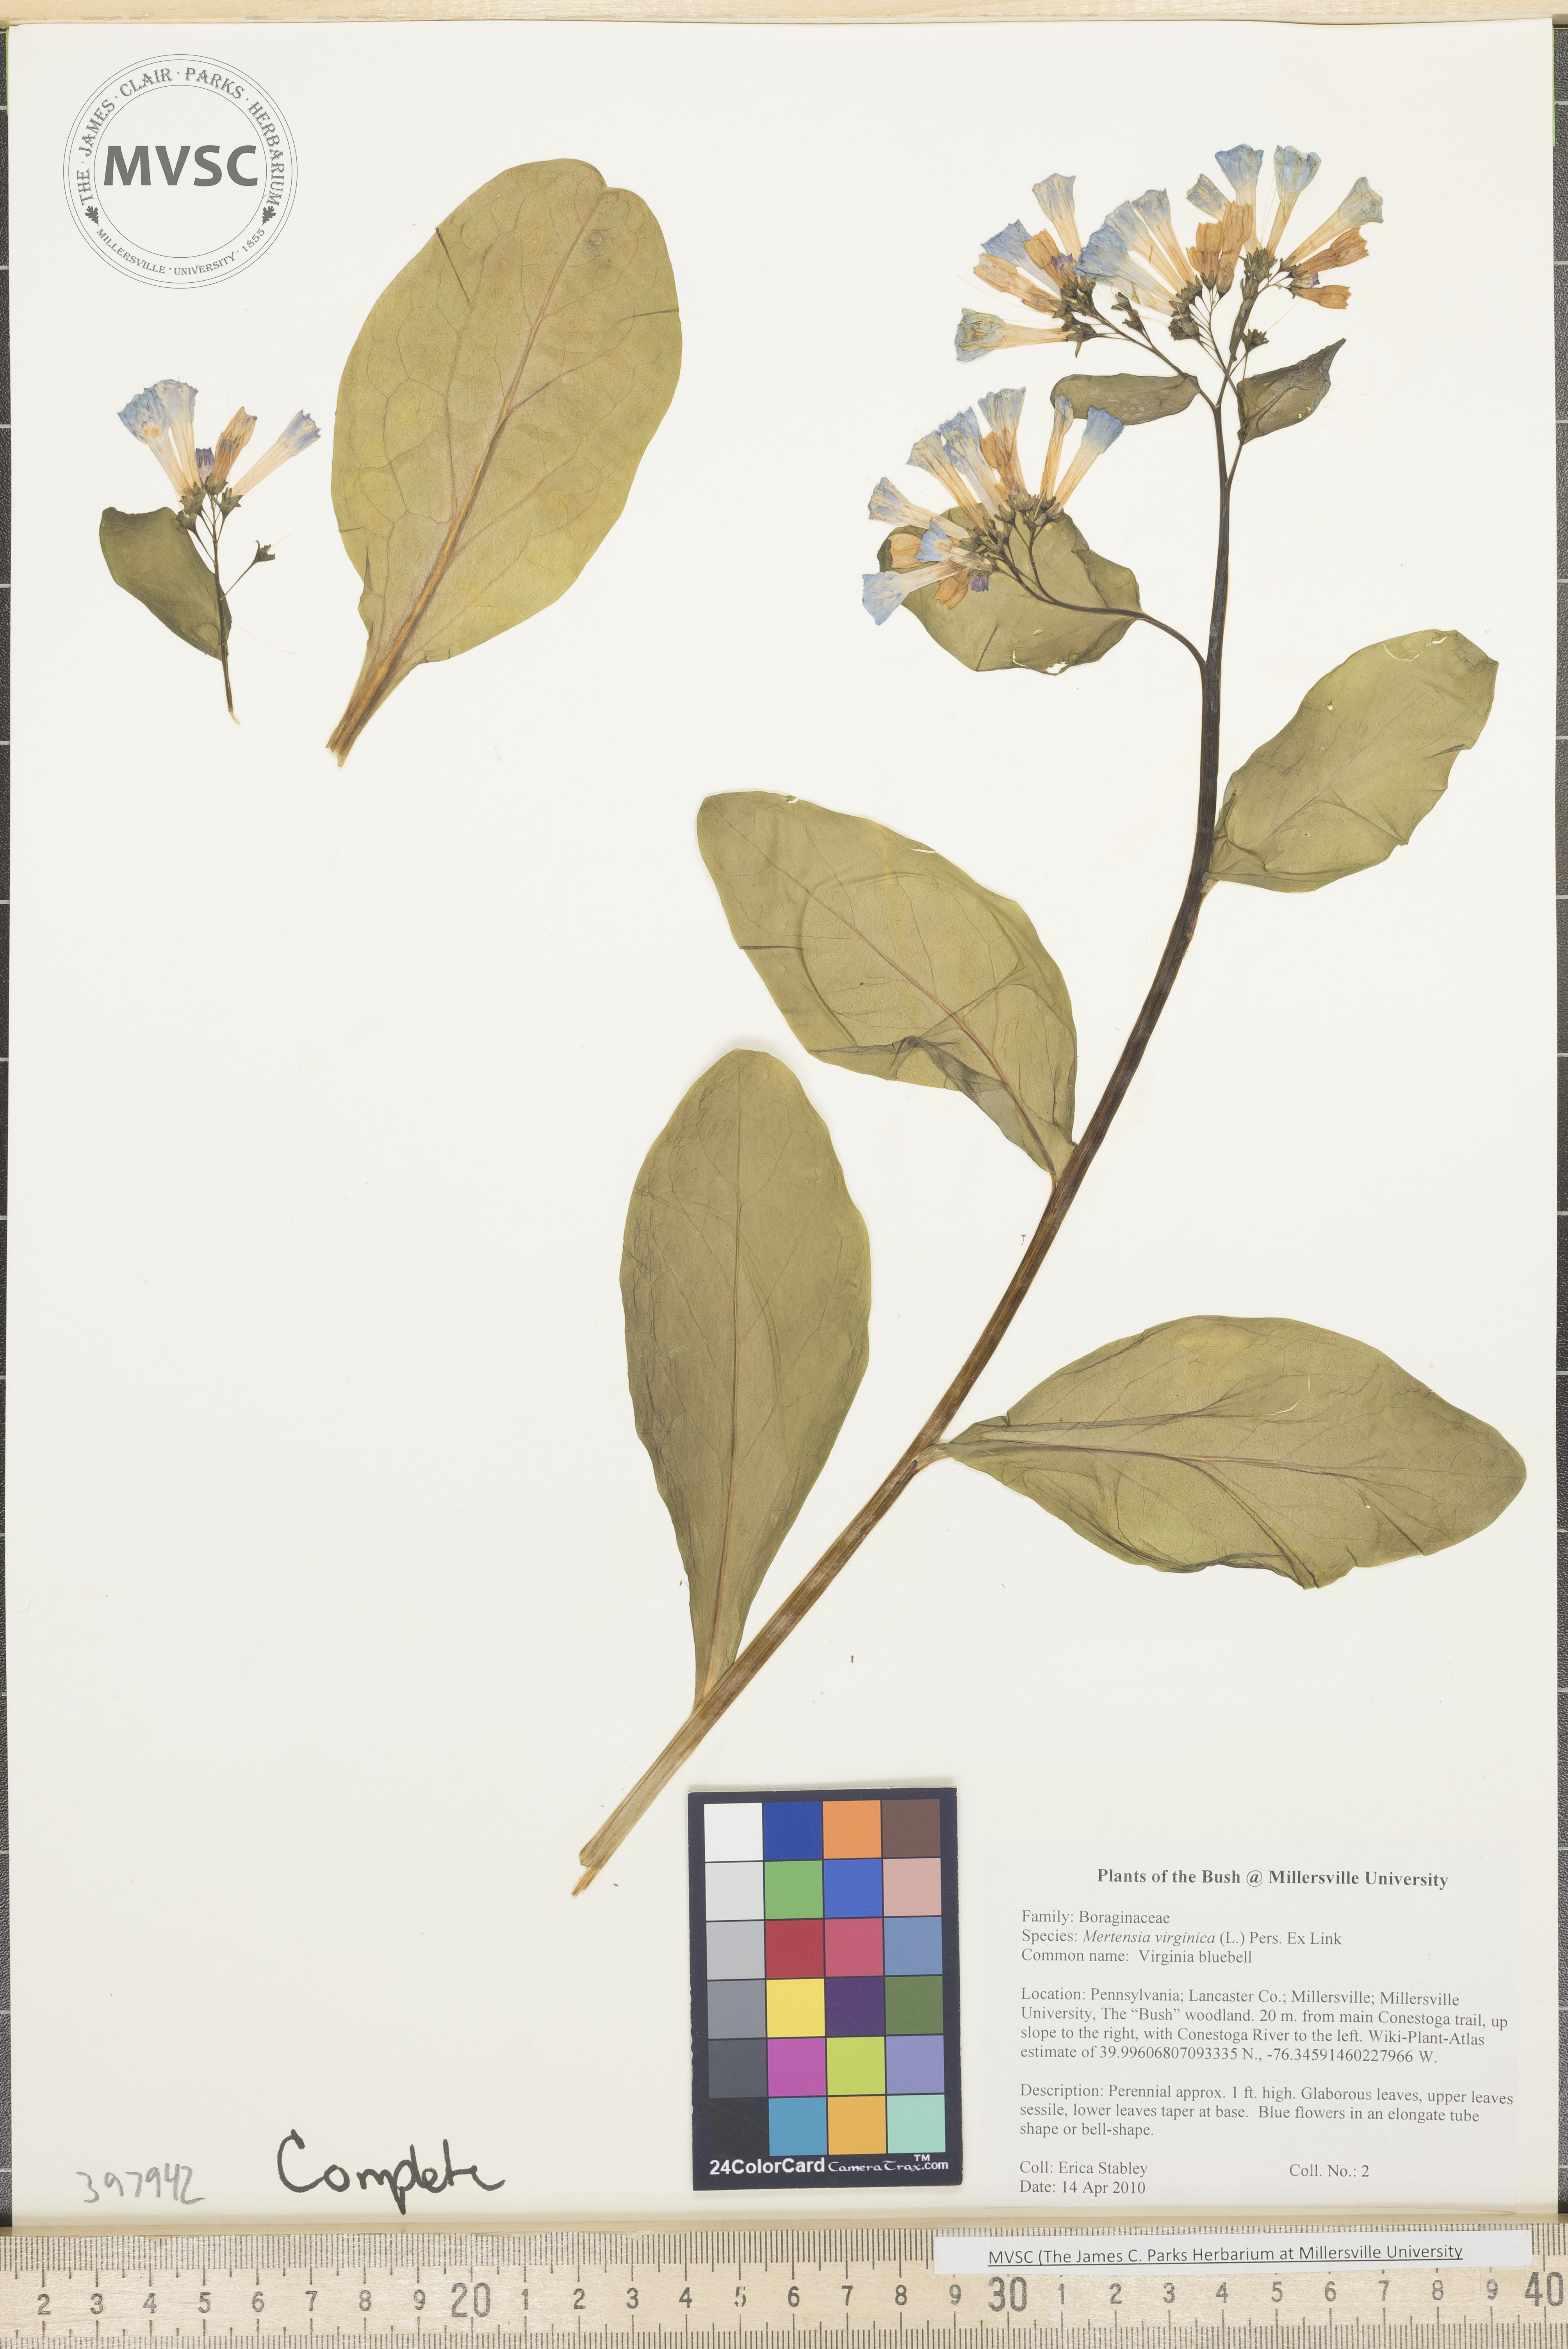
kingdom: Plantae
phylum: Tracheophyta
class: Magnoliopsida
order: Boraginales
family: Boraginaceae
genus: Mertensia
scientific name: Mertensia virginica
